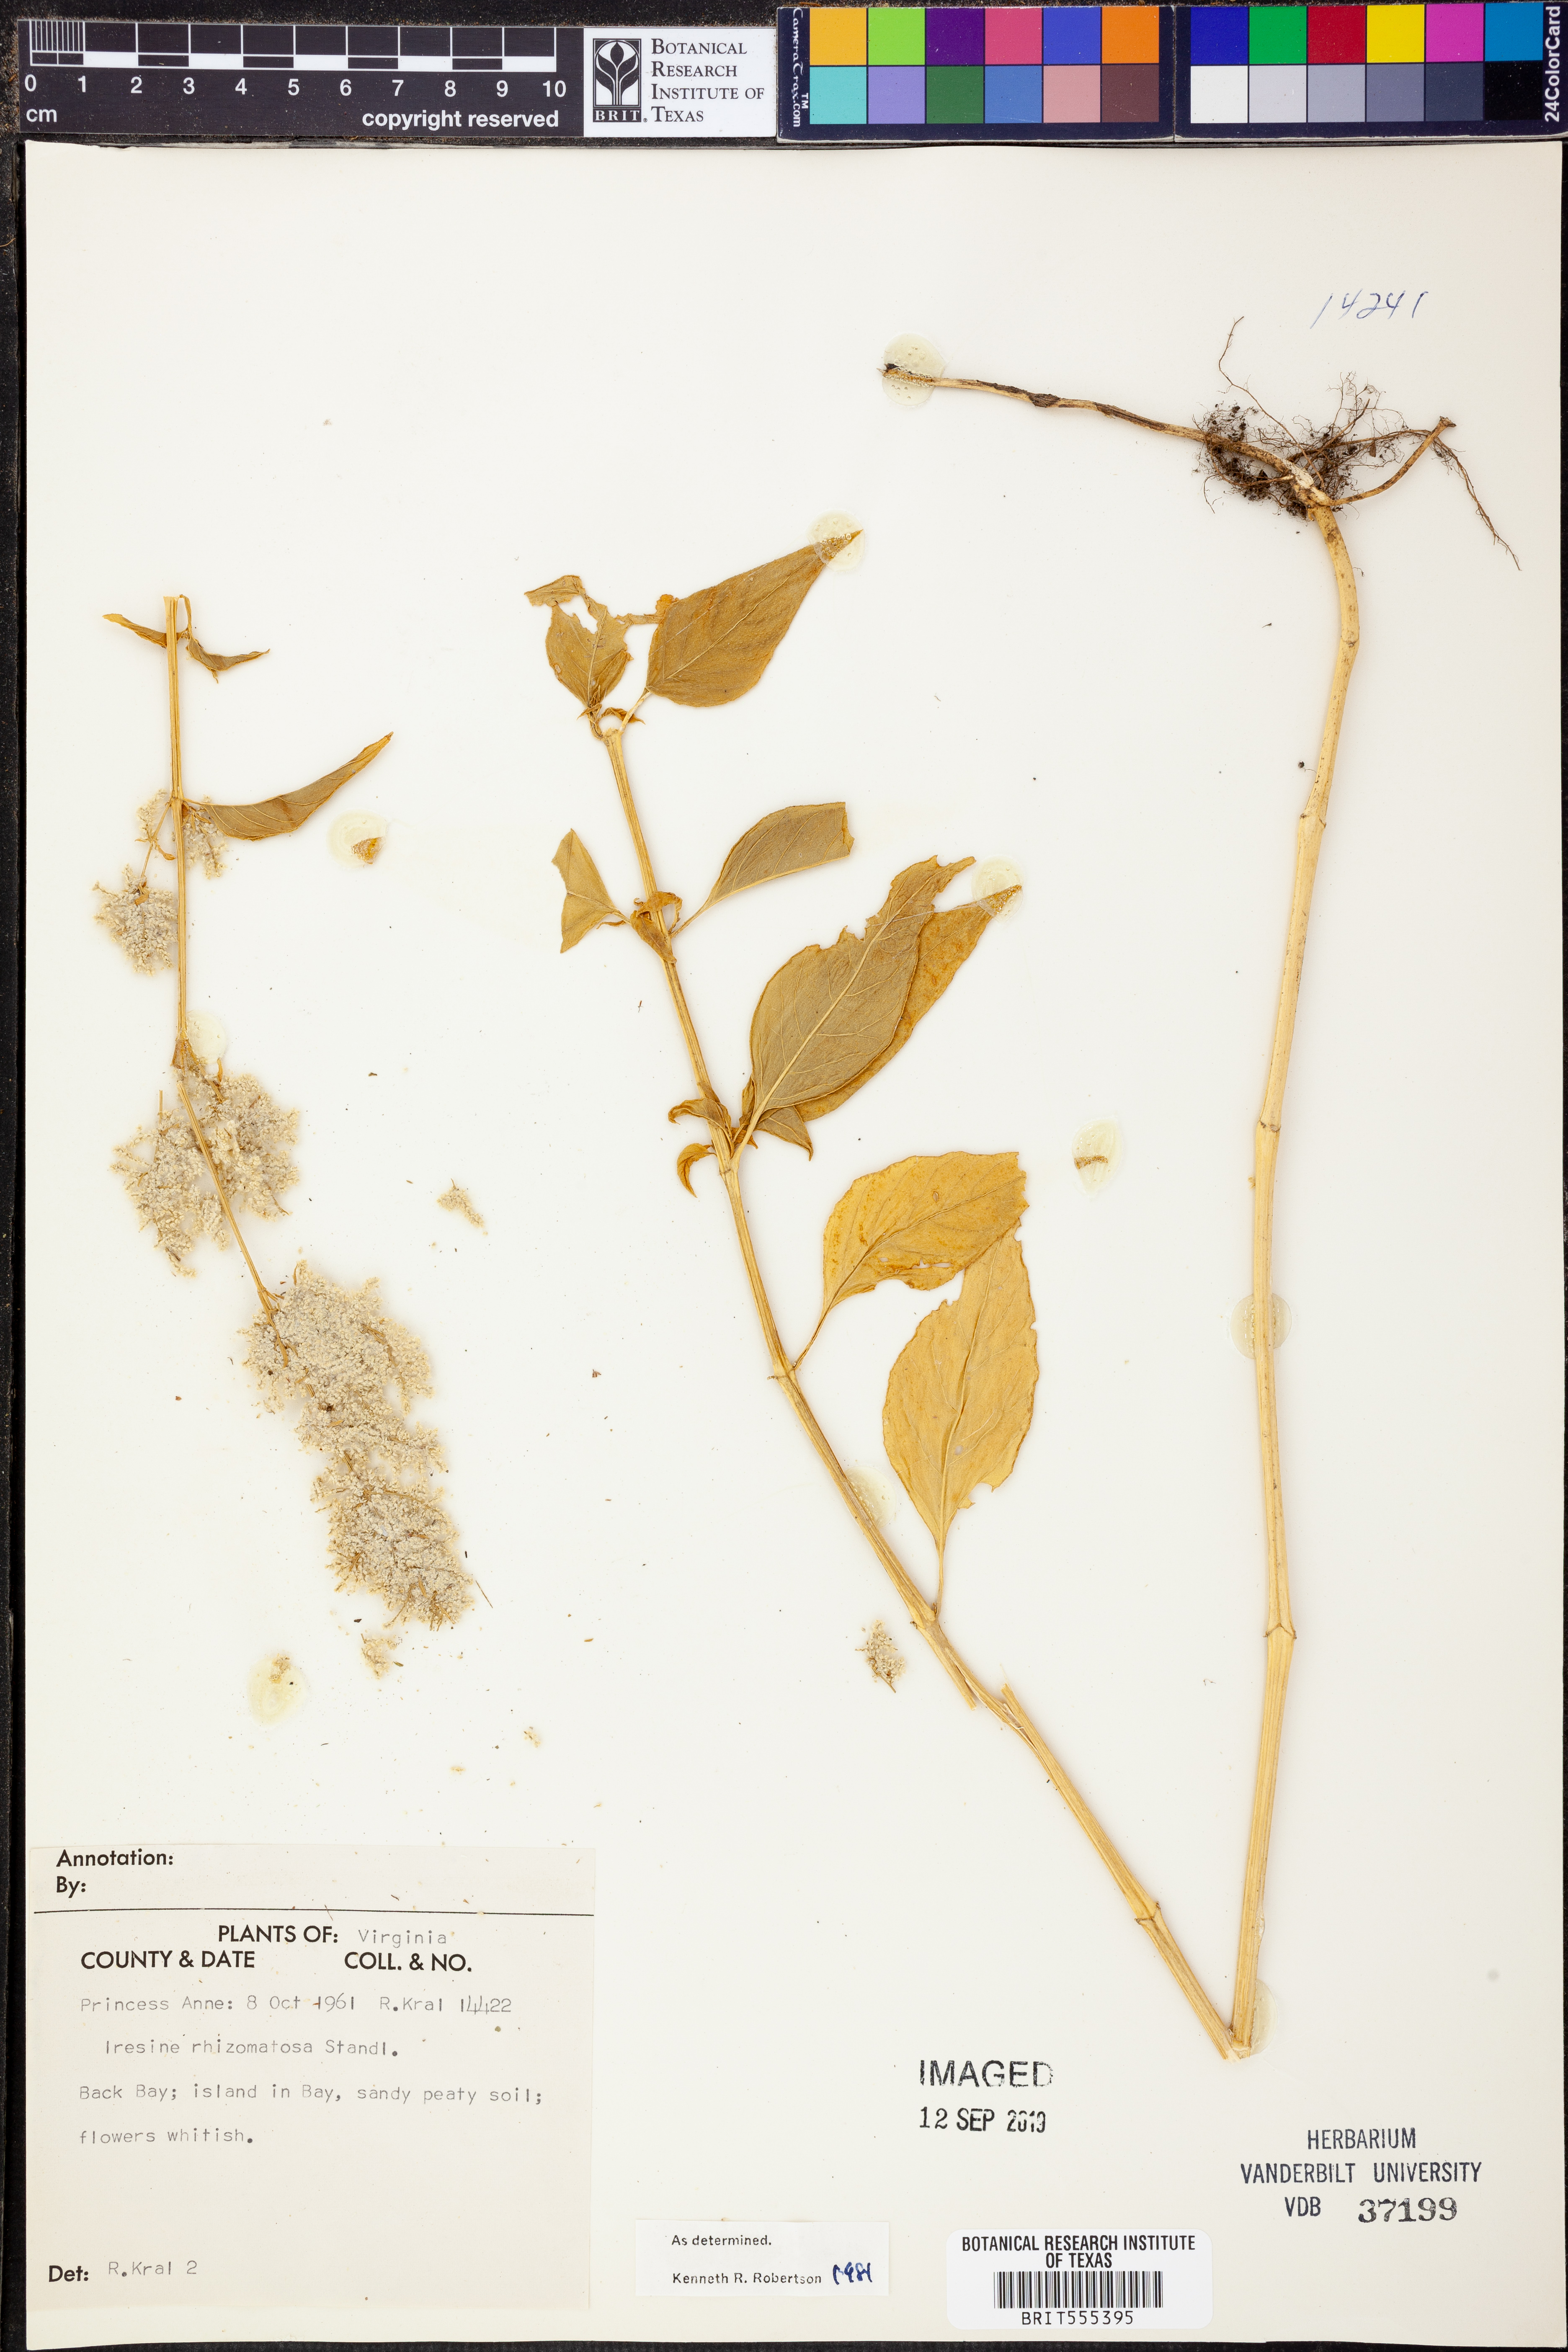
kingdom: Plantae
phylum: Tracheophyta
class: Magnoliopsida
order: Caryophyllales
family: Amaranthaceae
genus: Iresine
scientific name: Iresine rhizomatosa
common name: Juda's-bush
